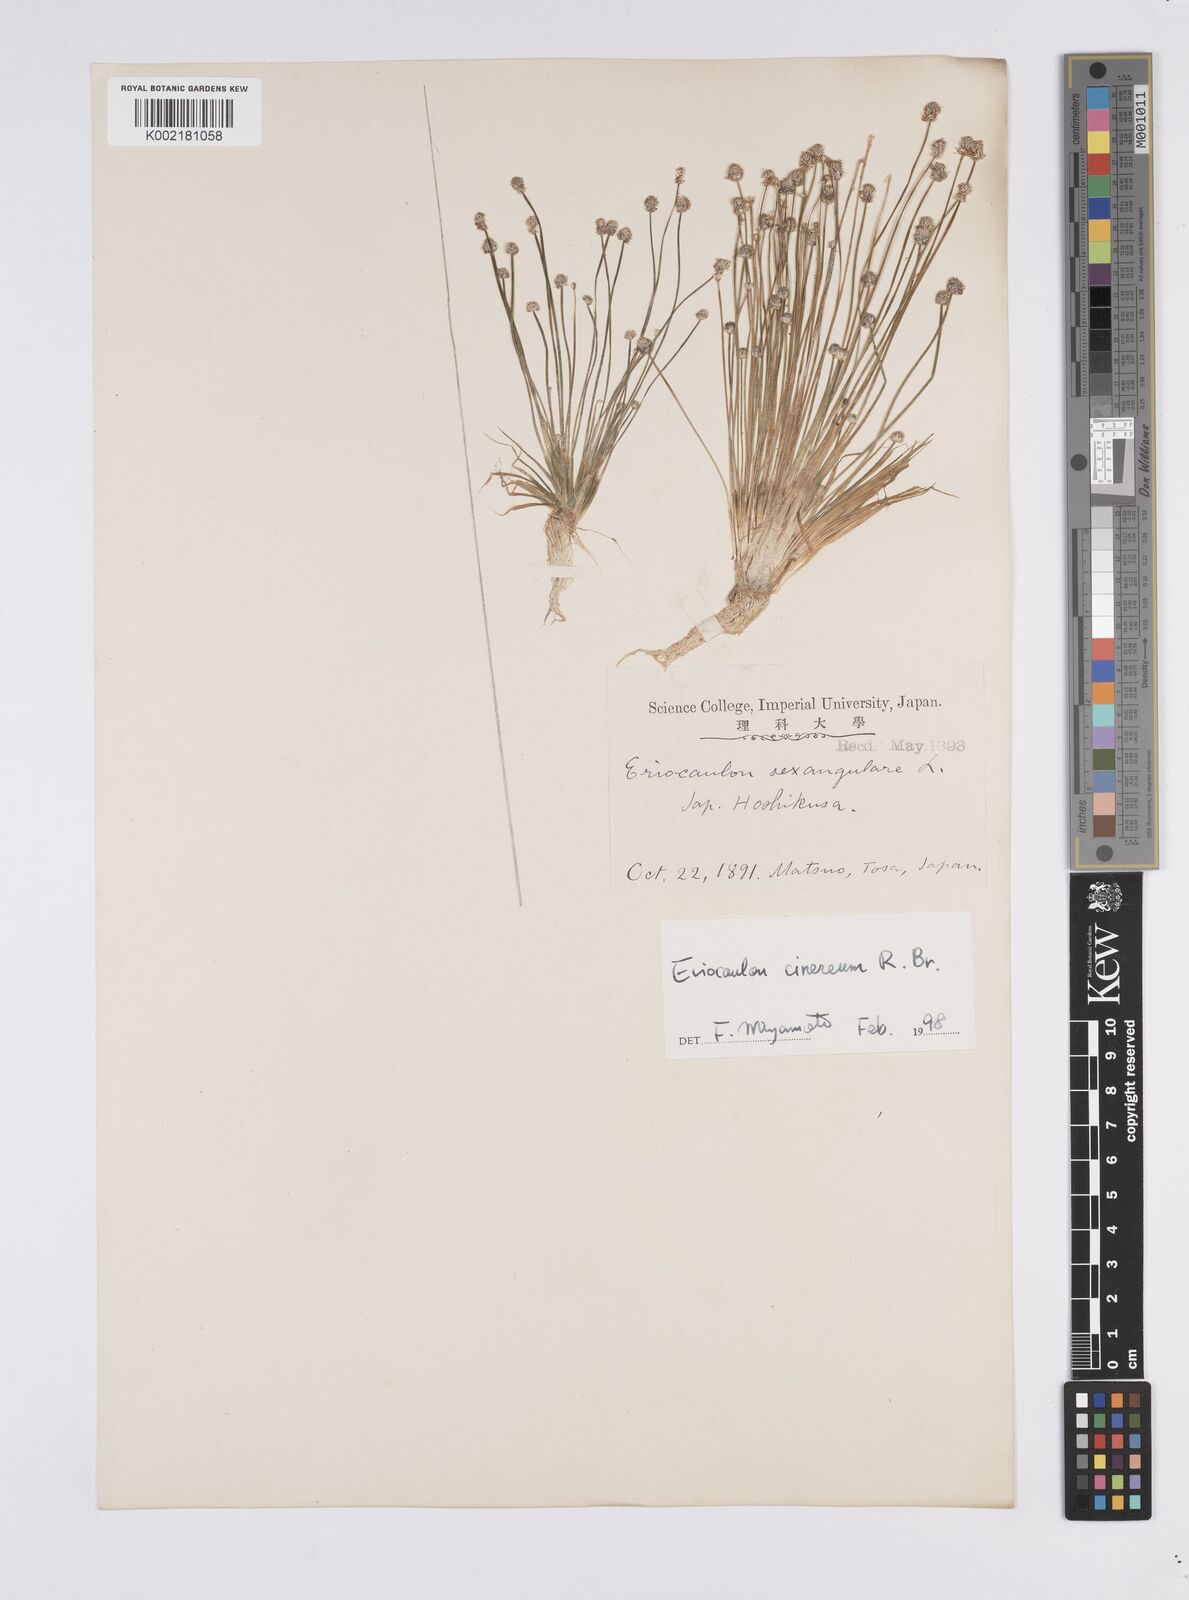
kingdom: Plantae
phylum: Tracheophyta
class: Liliopsida
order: Poales
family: Eriocaulaceae
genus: Eriocaulon
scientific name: Eriocaulon sexangulare
